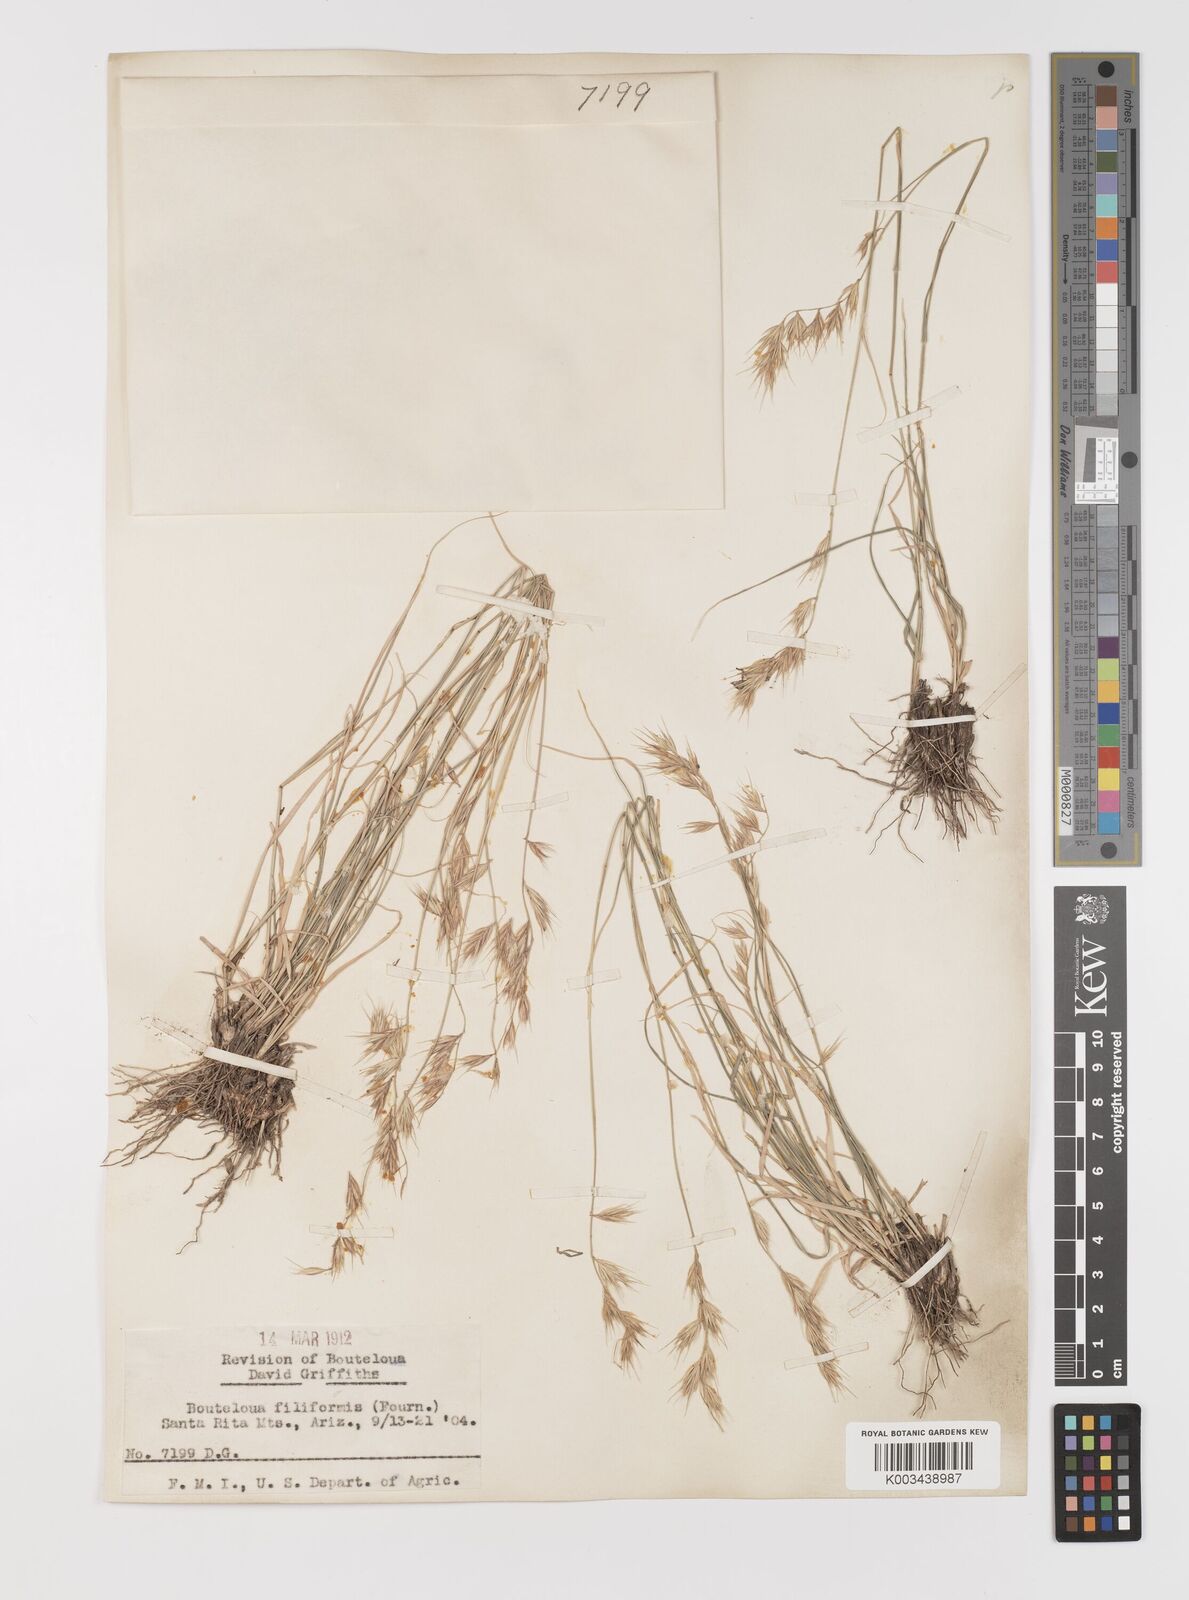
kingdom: Plantae
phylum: Tracheophyta
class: Liliopsida
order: Poales
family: Poaceae
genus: Bouteloua
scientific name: Bouteloua repens
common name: Slender grama
